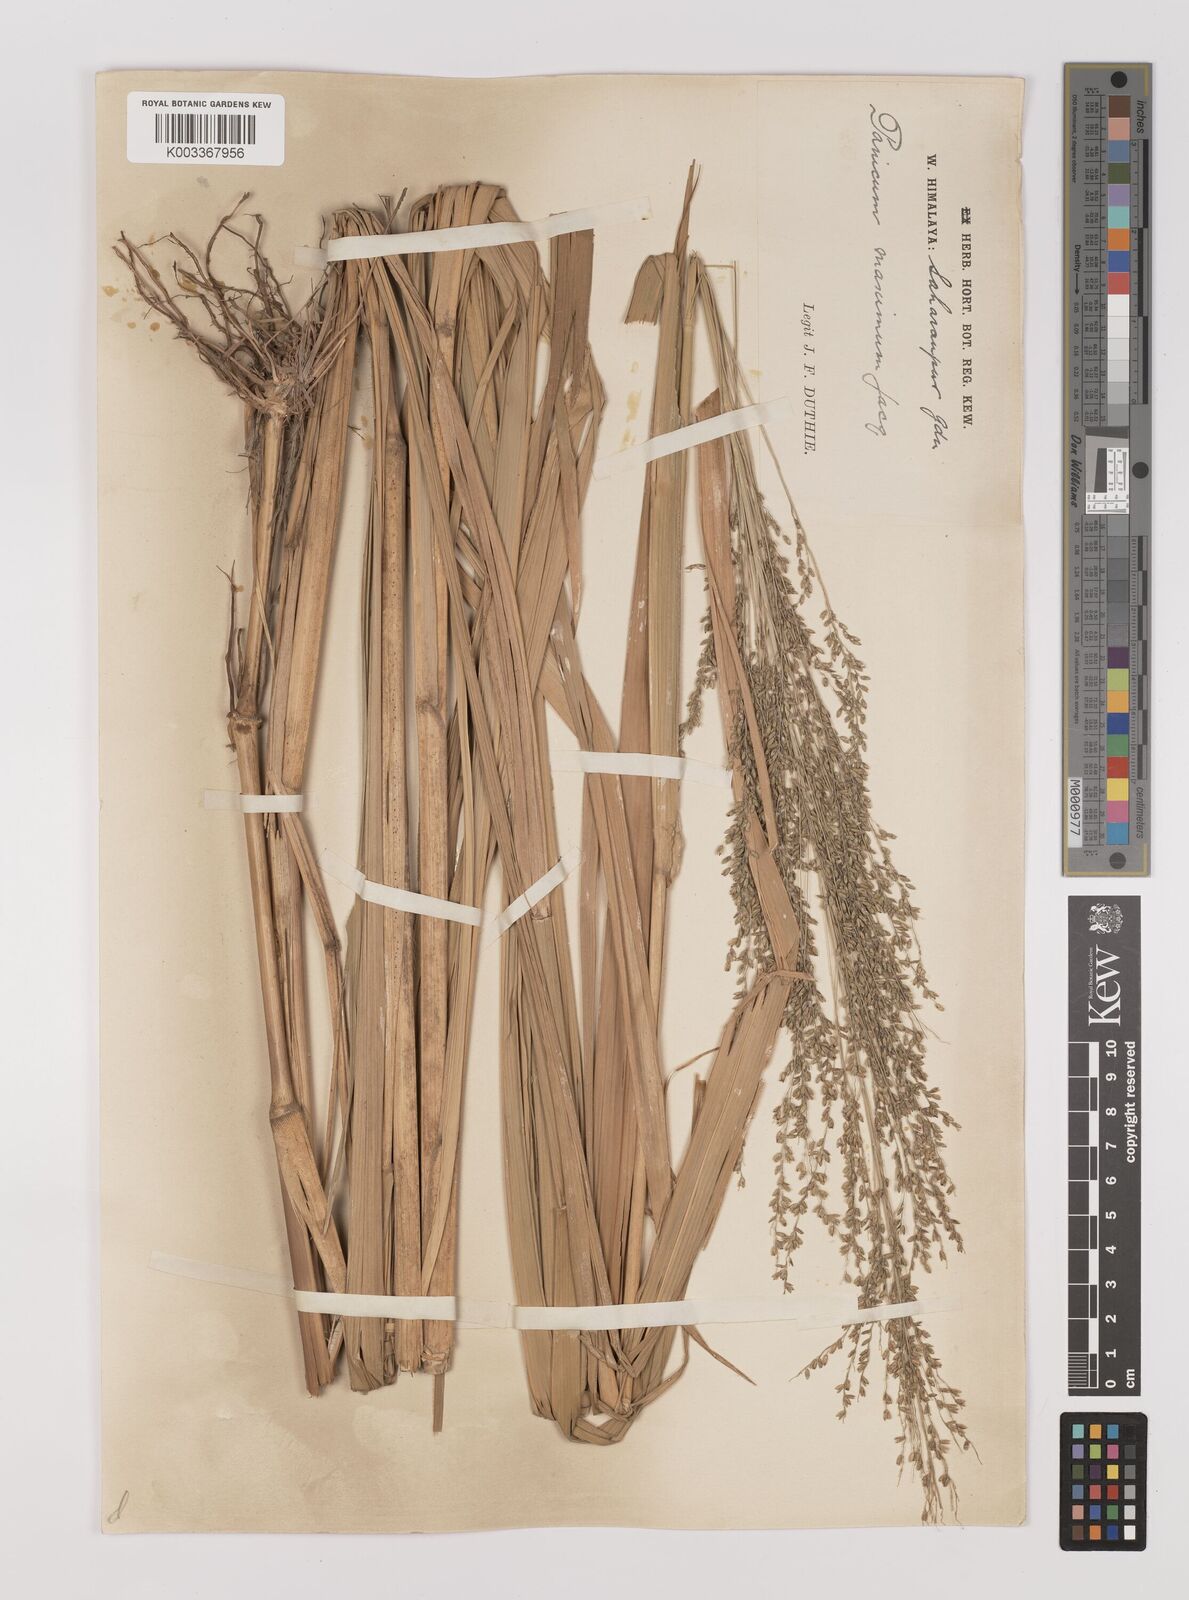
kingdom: Plantae
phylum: Tracheophyta
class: Liliopsida
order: Poales
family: Poaceae
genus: Megathyrsus
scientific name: Megathyrsus maximus
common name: Guineagrass
